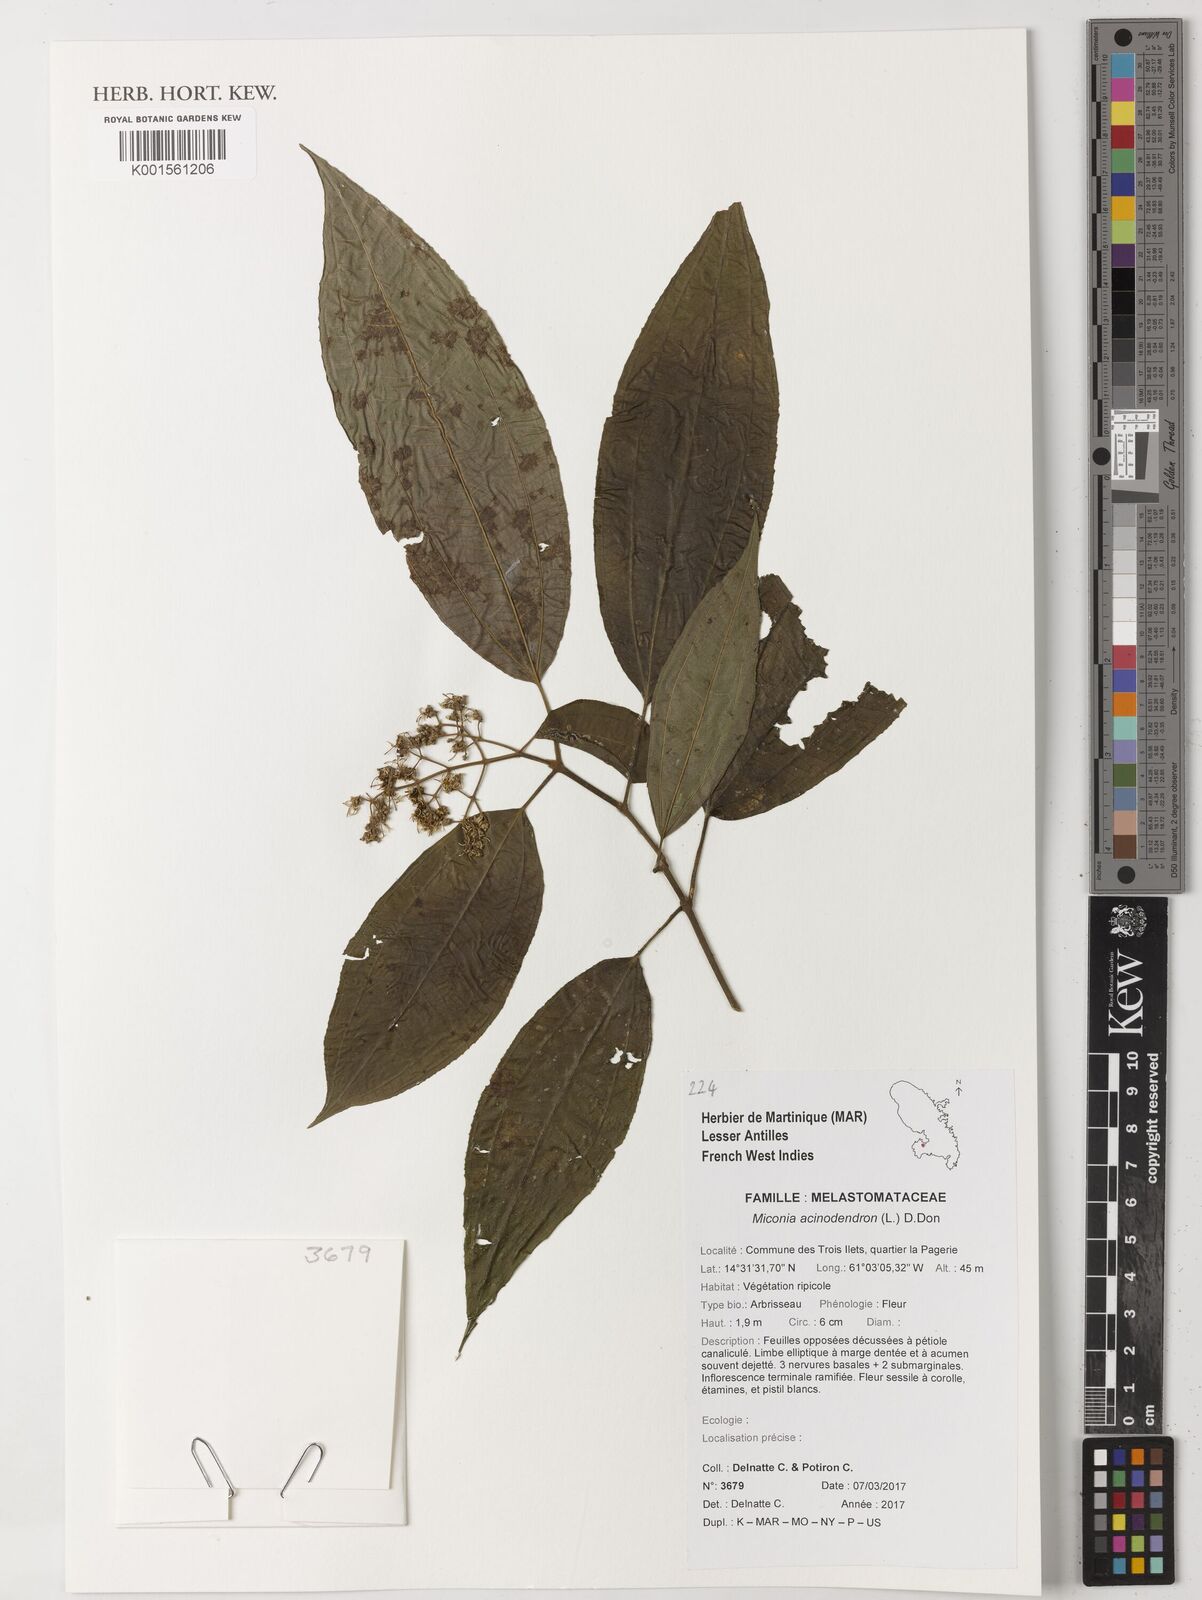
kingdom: Plantae
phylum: Tracheophyta
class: Magnoliopsida
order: Myrtales
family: Melastomataceae
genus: Miconia
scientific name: Miconia acinodendron
